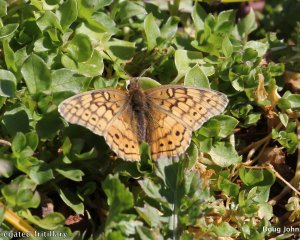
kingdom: Animalia
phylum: Arthropoda
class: Insecta
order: Lepidoptera
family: Nymphalidae
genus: Euptoieta
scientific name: Euptoieta claudia
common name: Variegated Fritillary
